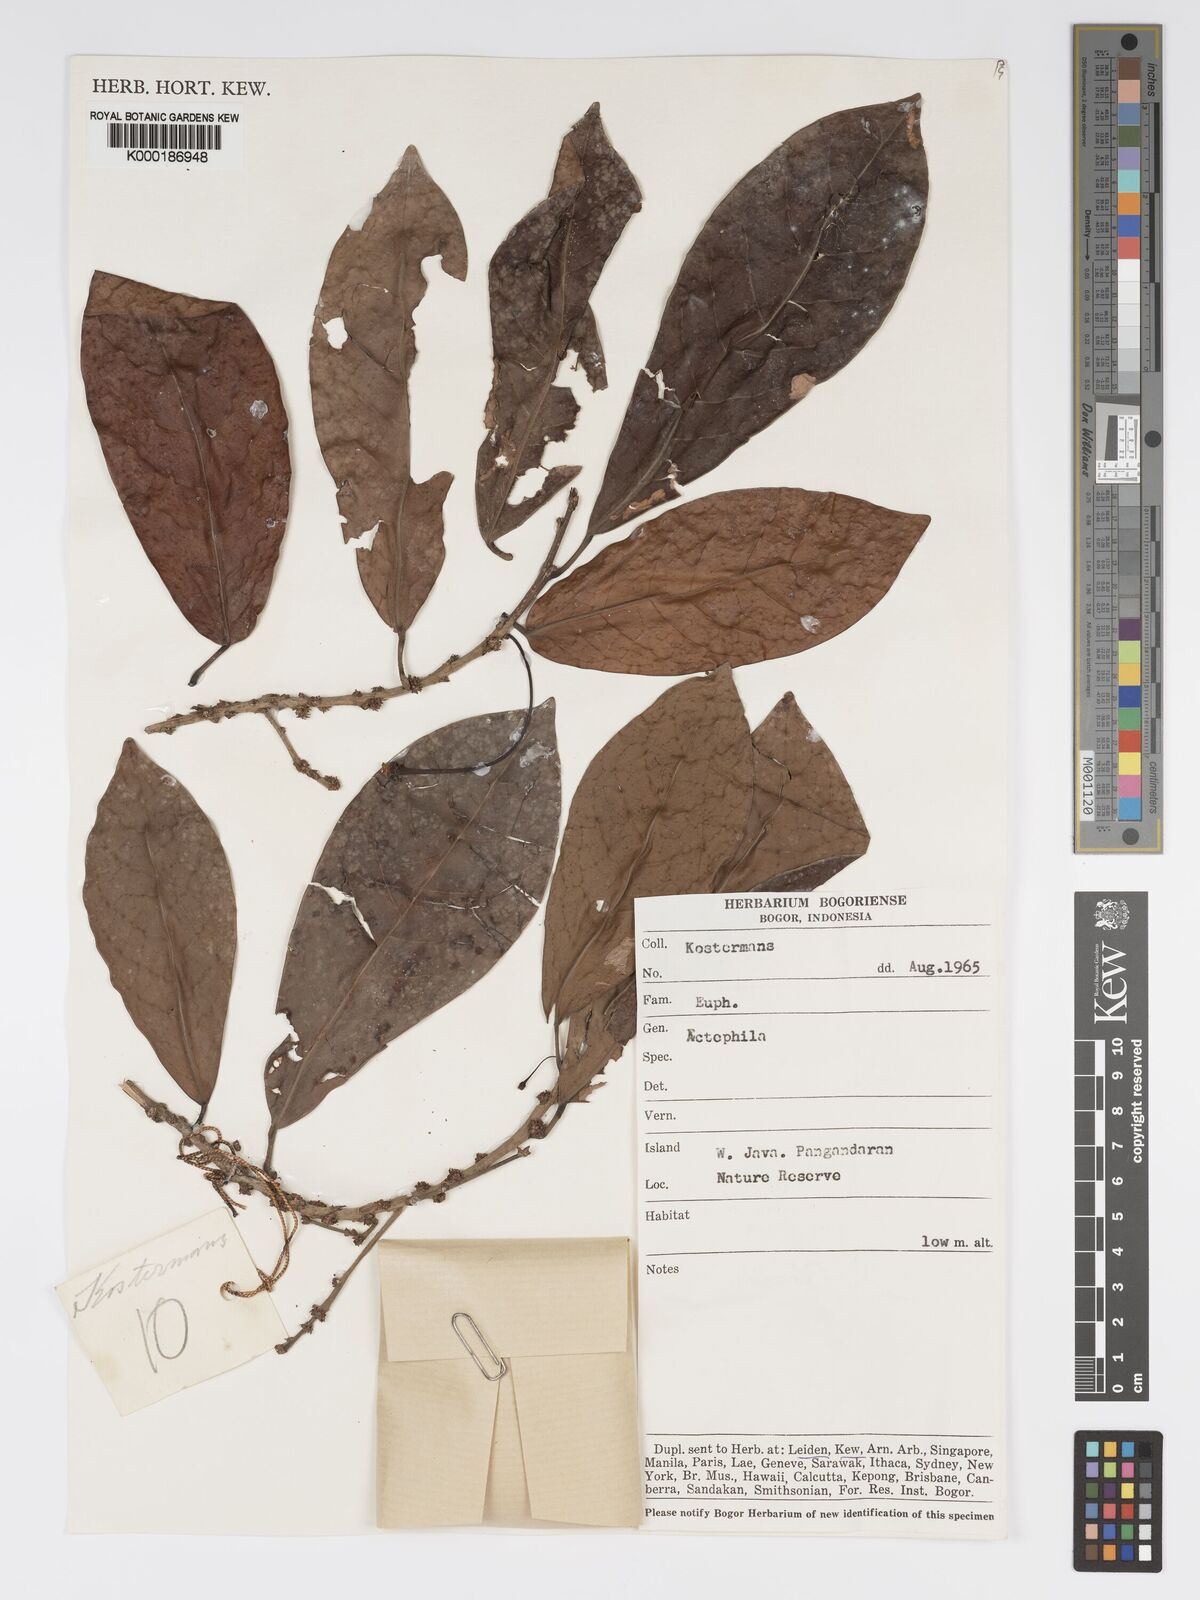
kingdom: Plantae
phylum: Tracheophyta
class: Magnoliopsida
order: Malpighiales
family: Phyllanthaceae
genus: Actephila
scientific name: Actephila
